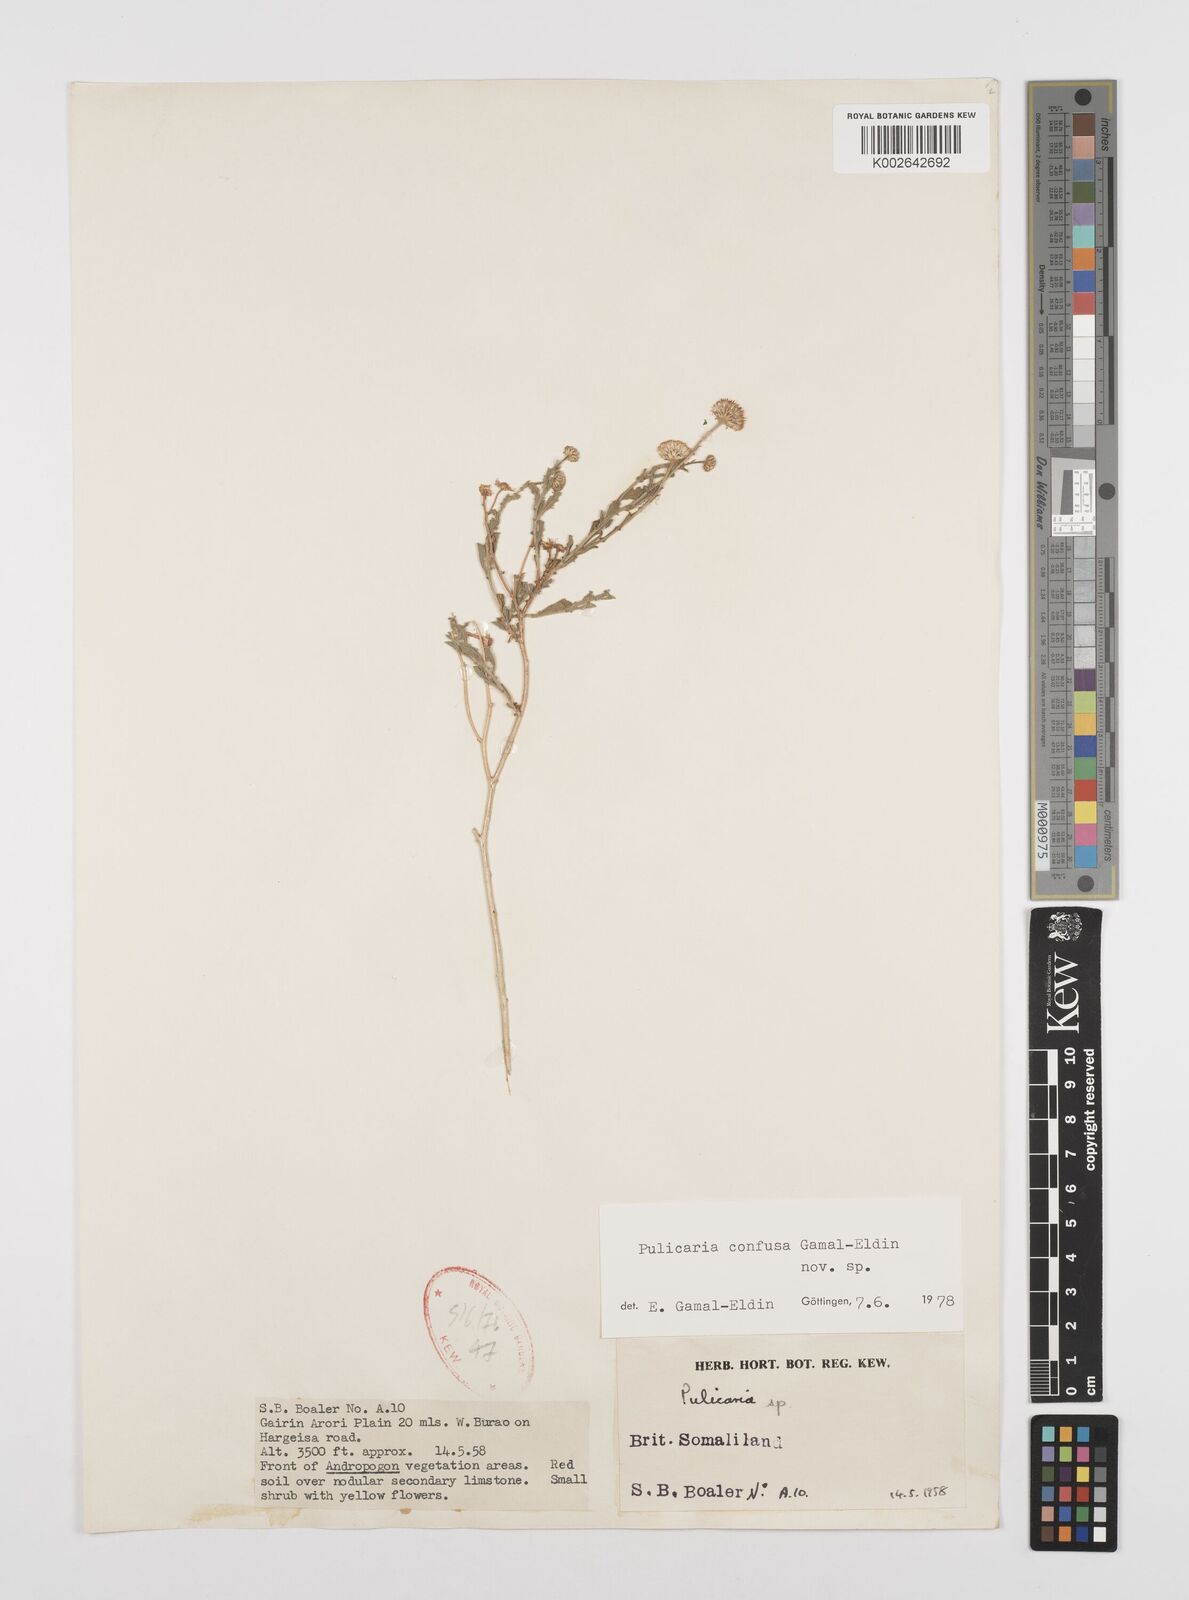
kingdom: Plantae
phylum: Tracheophyta
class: Magnoliopsida
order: Asterales
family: Asteraceae
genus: Pulicaria
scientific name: Pulicaria confusa
